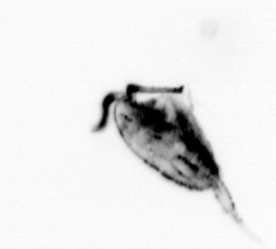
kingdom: Animalia
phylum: Arthropoda
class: Maxillopoda
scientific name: Maxillopoda
